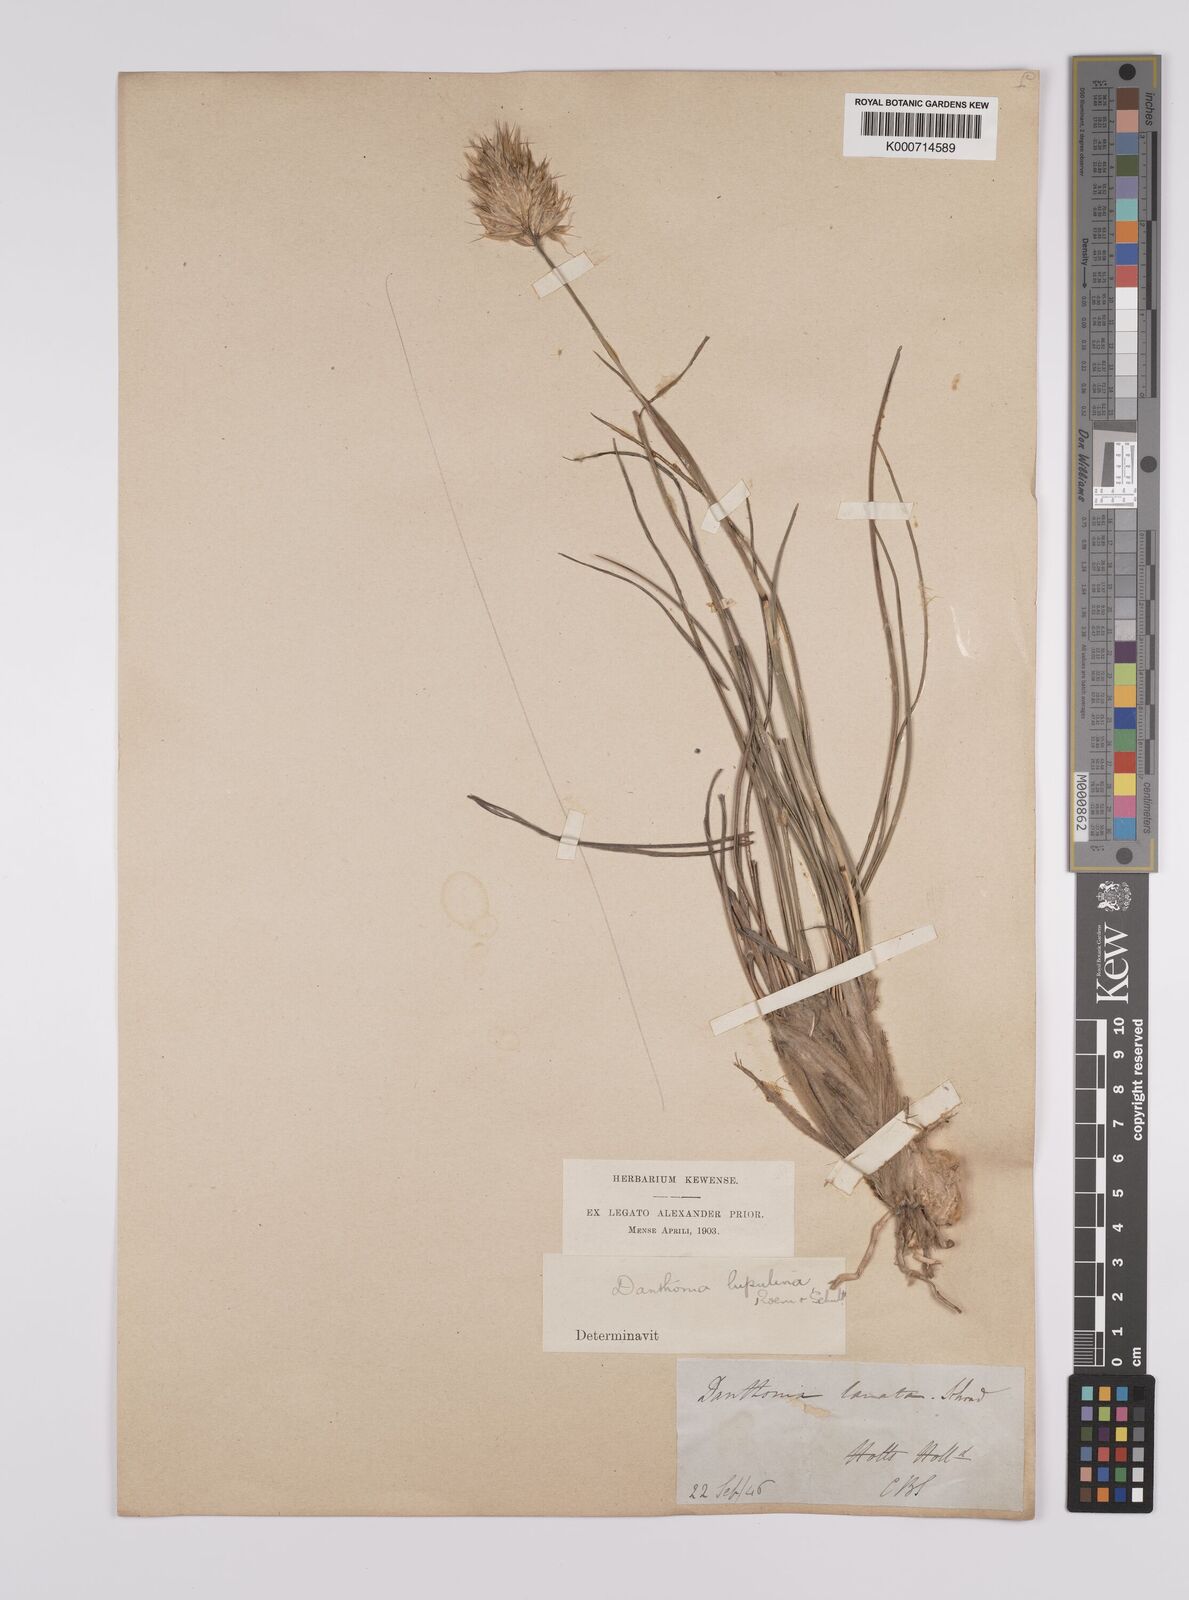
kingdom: Plantae
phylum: Tracheophyta
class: Liliopsida
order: Poales
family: Poaceae
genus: Rytidosperma
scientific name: Rytidosperma
